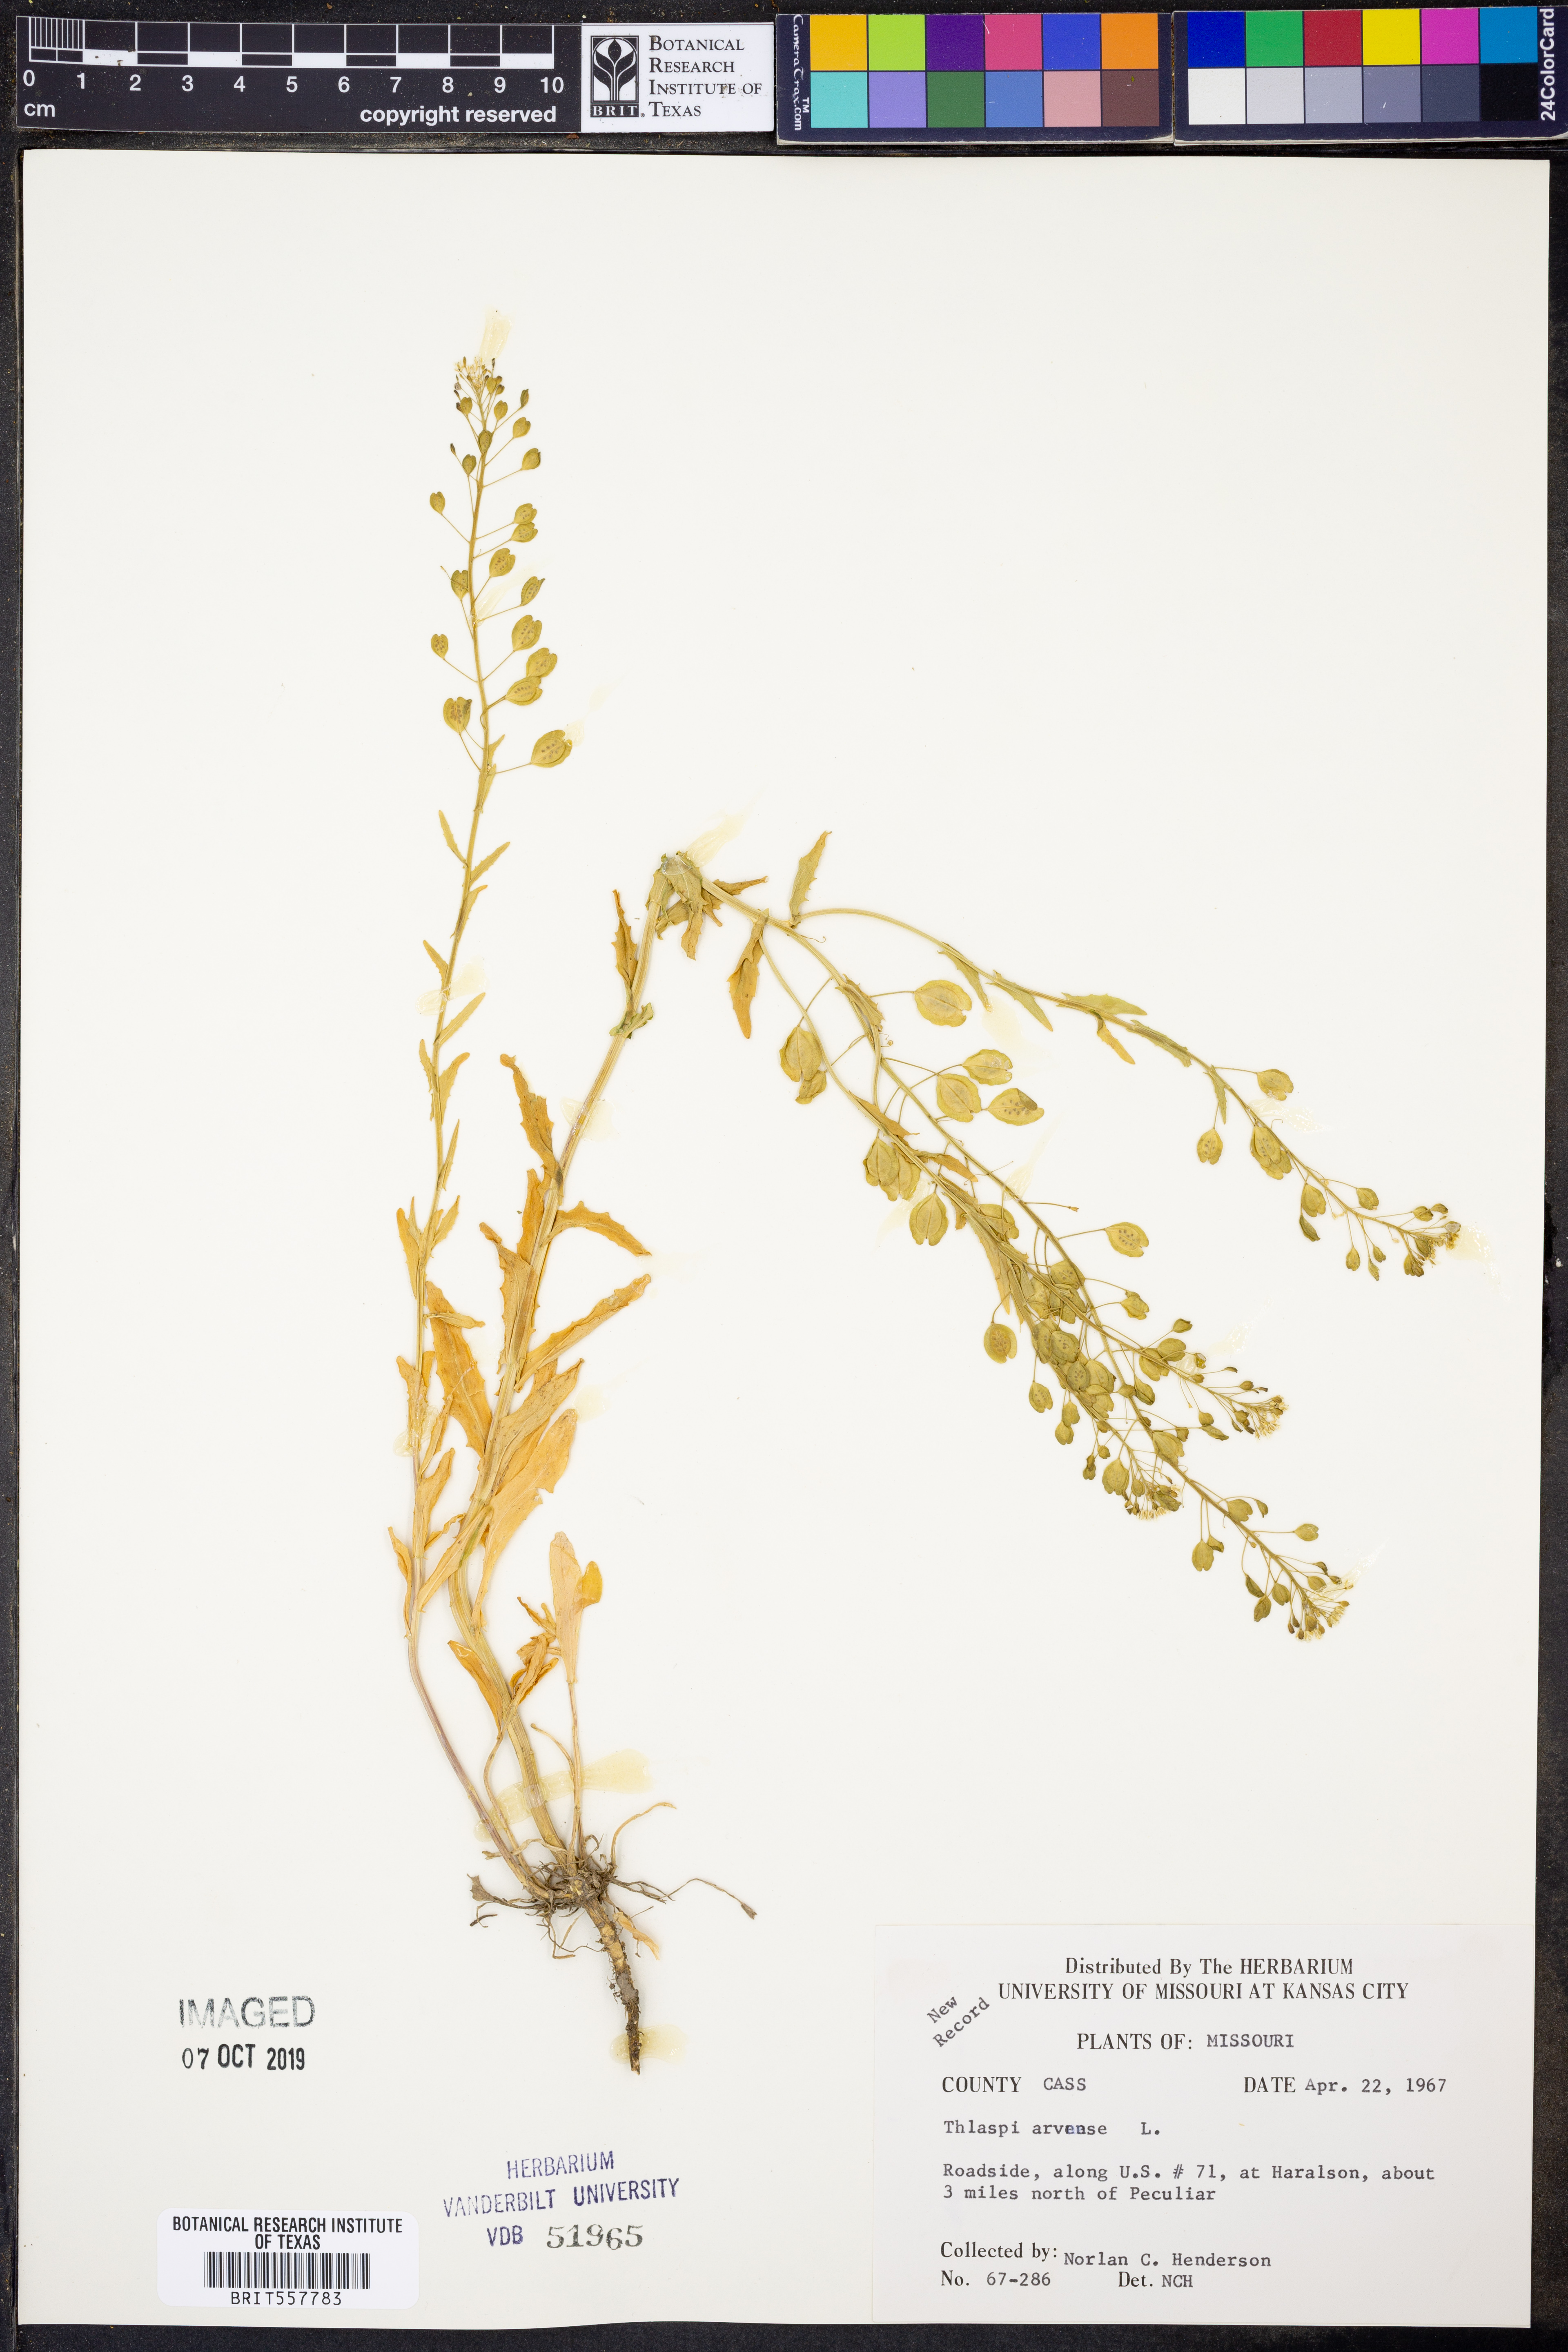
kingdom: Plantae
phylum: Tracheophyta
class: Magnoliopsida
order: Brassicales
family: Brassicaceae
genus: Thlaspi
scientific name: Thlaspi arvense
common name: Field pennycress
